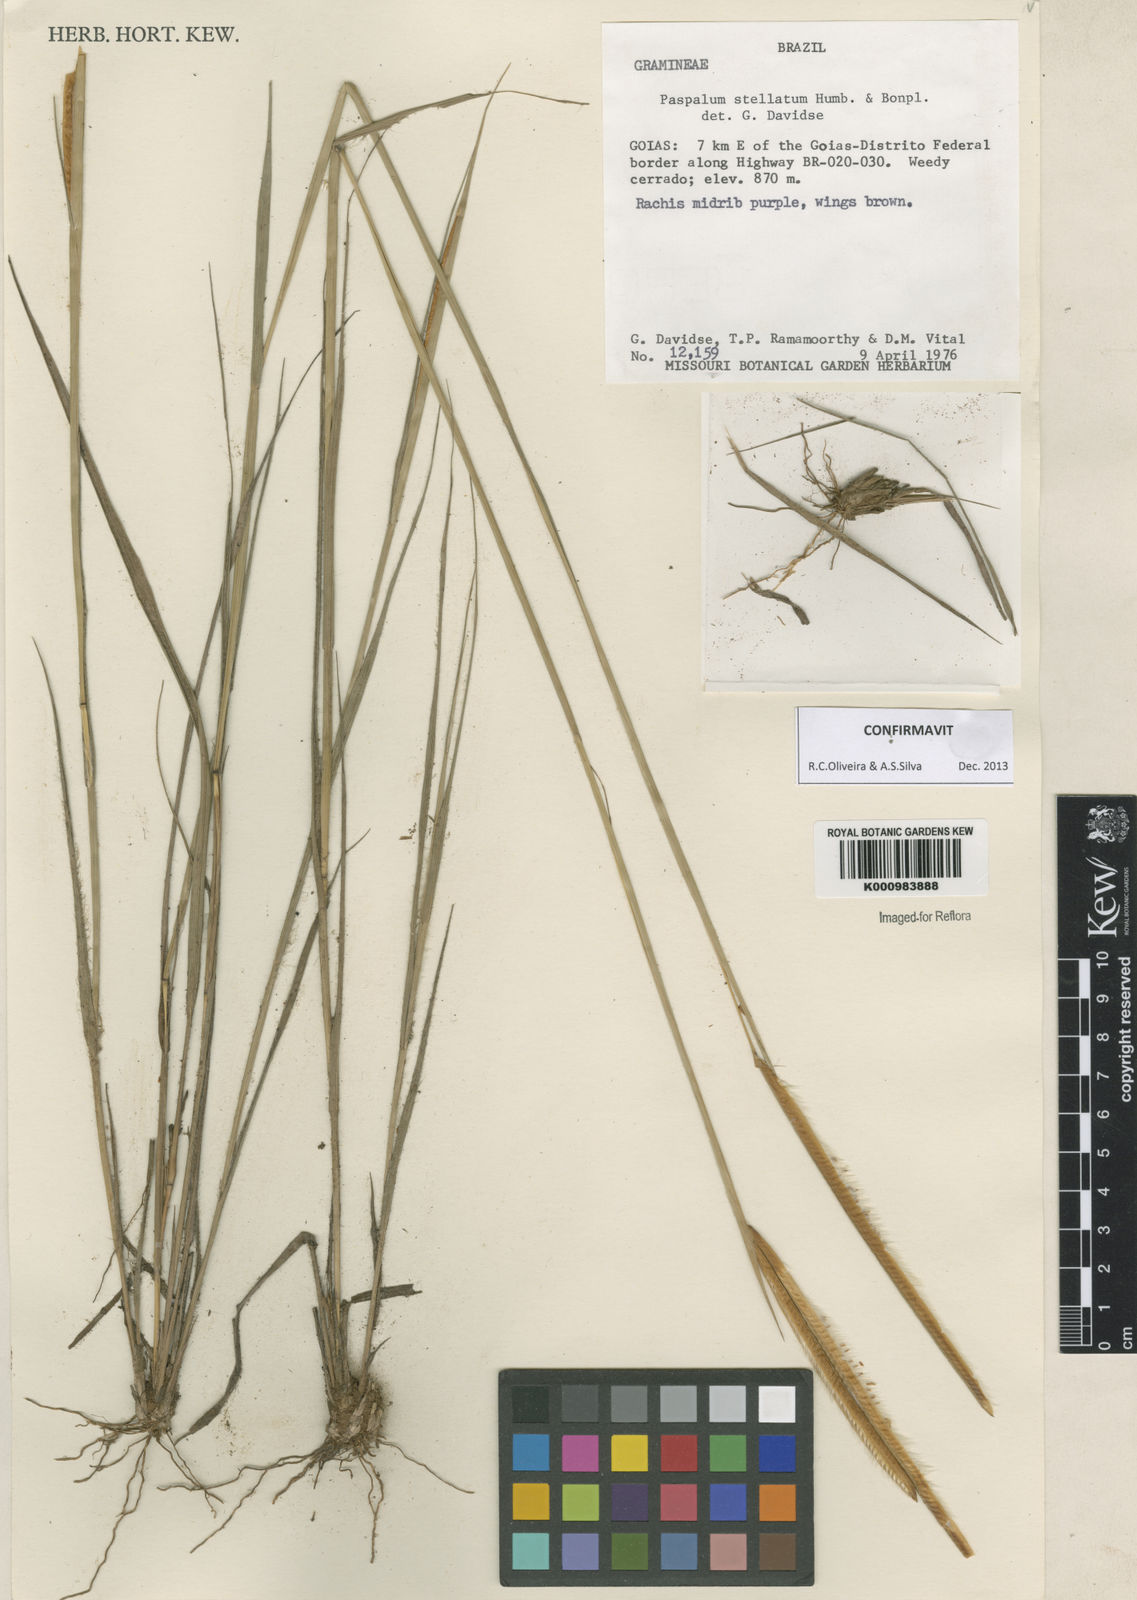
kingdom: Plantae
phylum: Tracheophyta
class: Liliopsida
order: Poales
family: Poaceae
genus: Paspalum
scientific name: Paspalum
